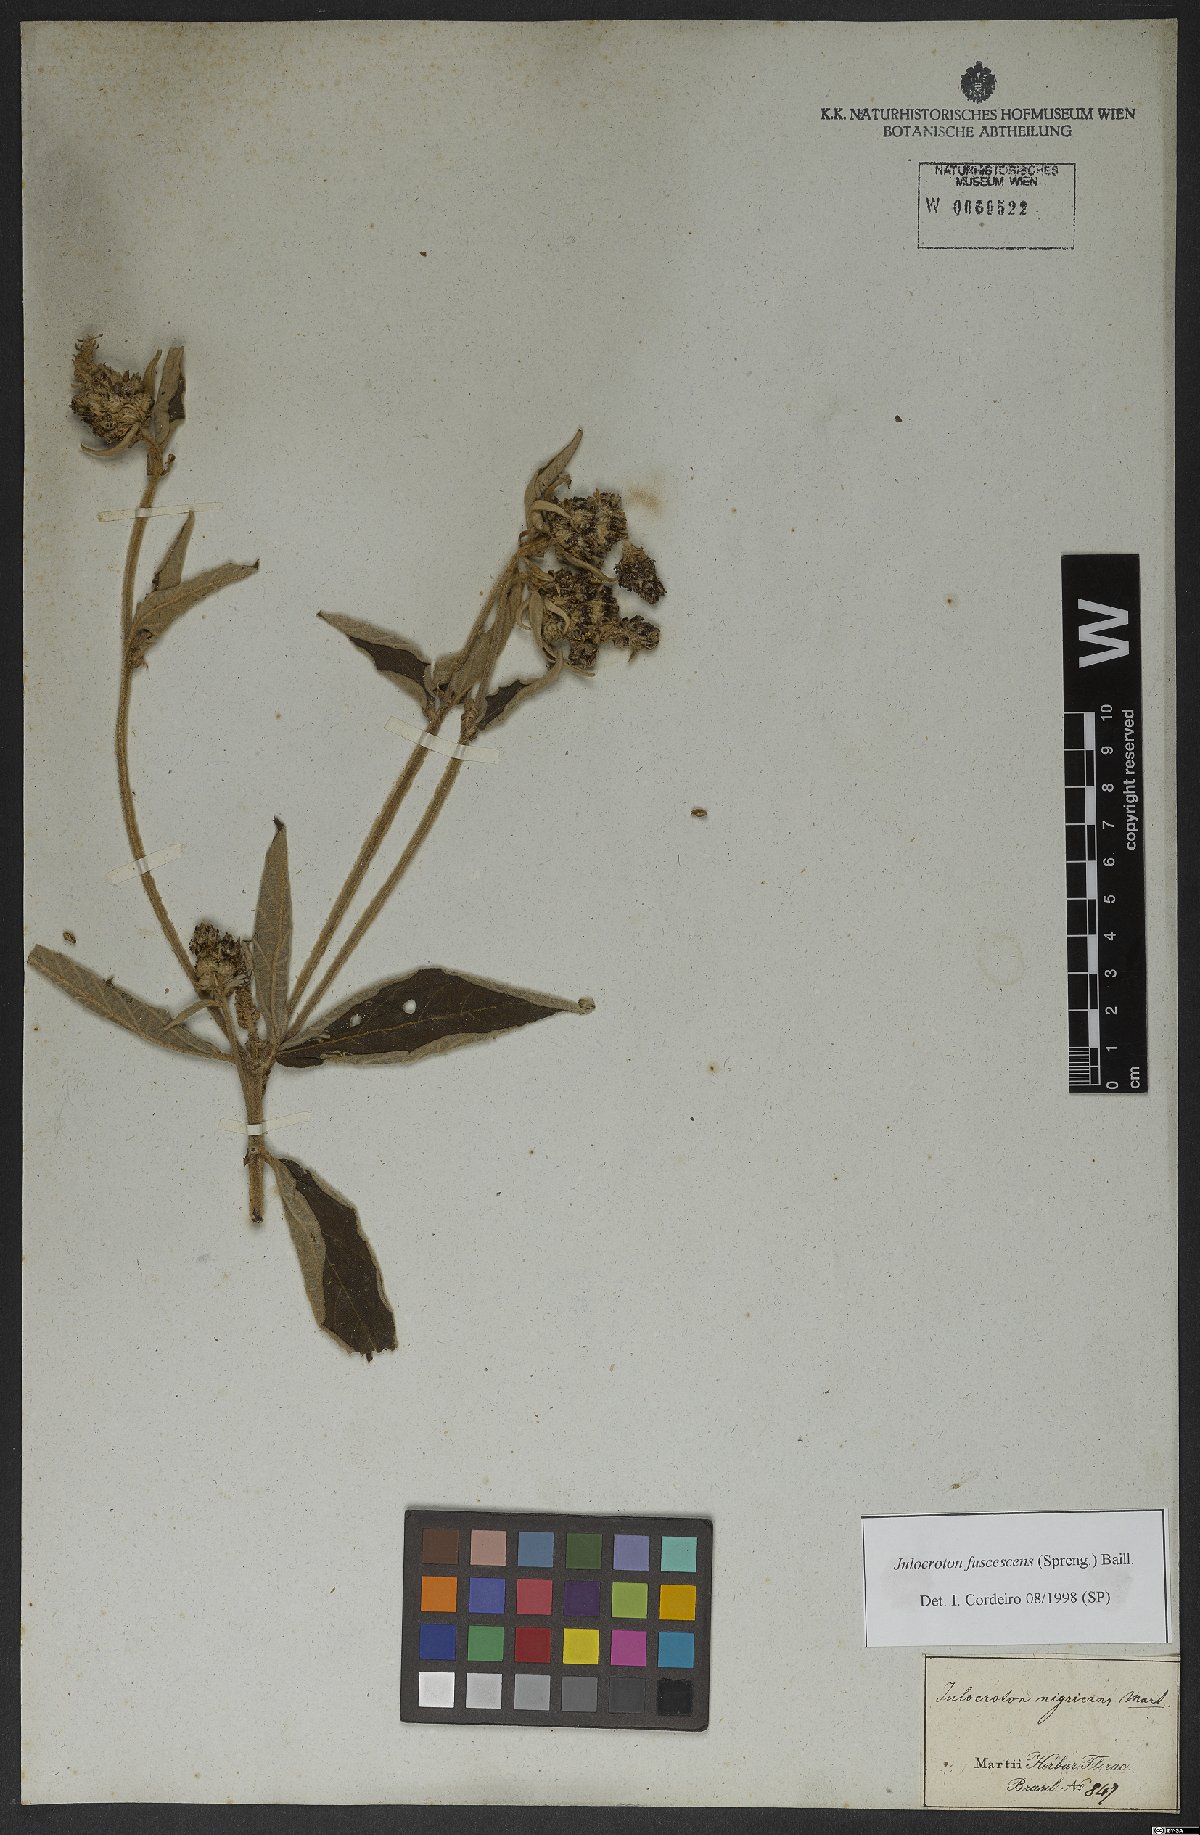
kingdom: Plantae
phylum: Tracheophyta
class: Magnoliopsida
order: Malpighiales
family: Euphorbiaceae
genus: Croton
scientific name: Croton gnaphaloides
